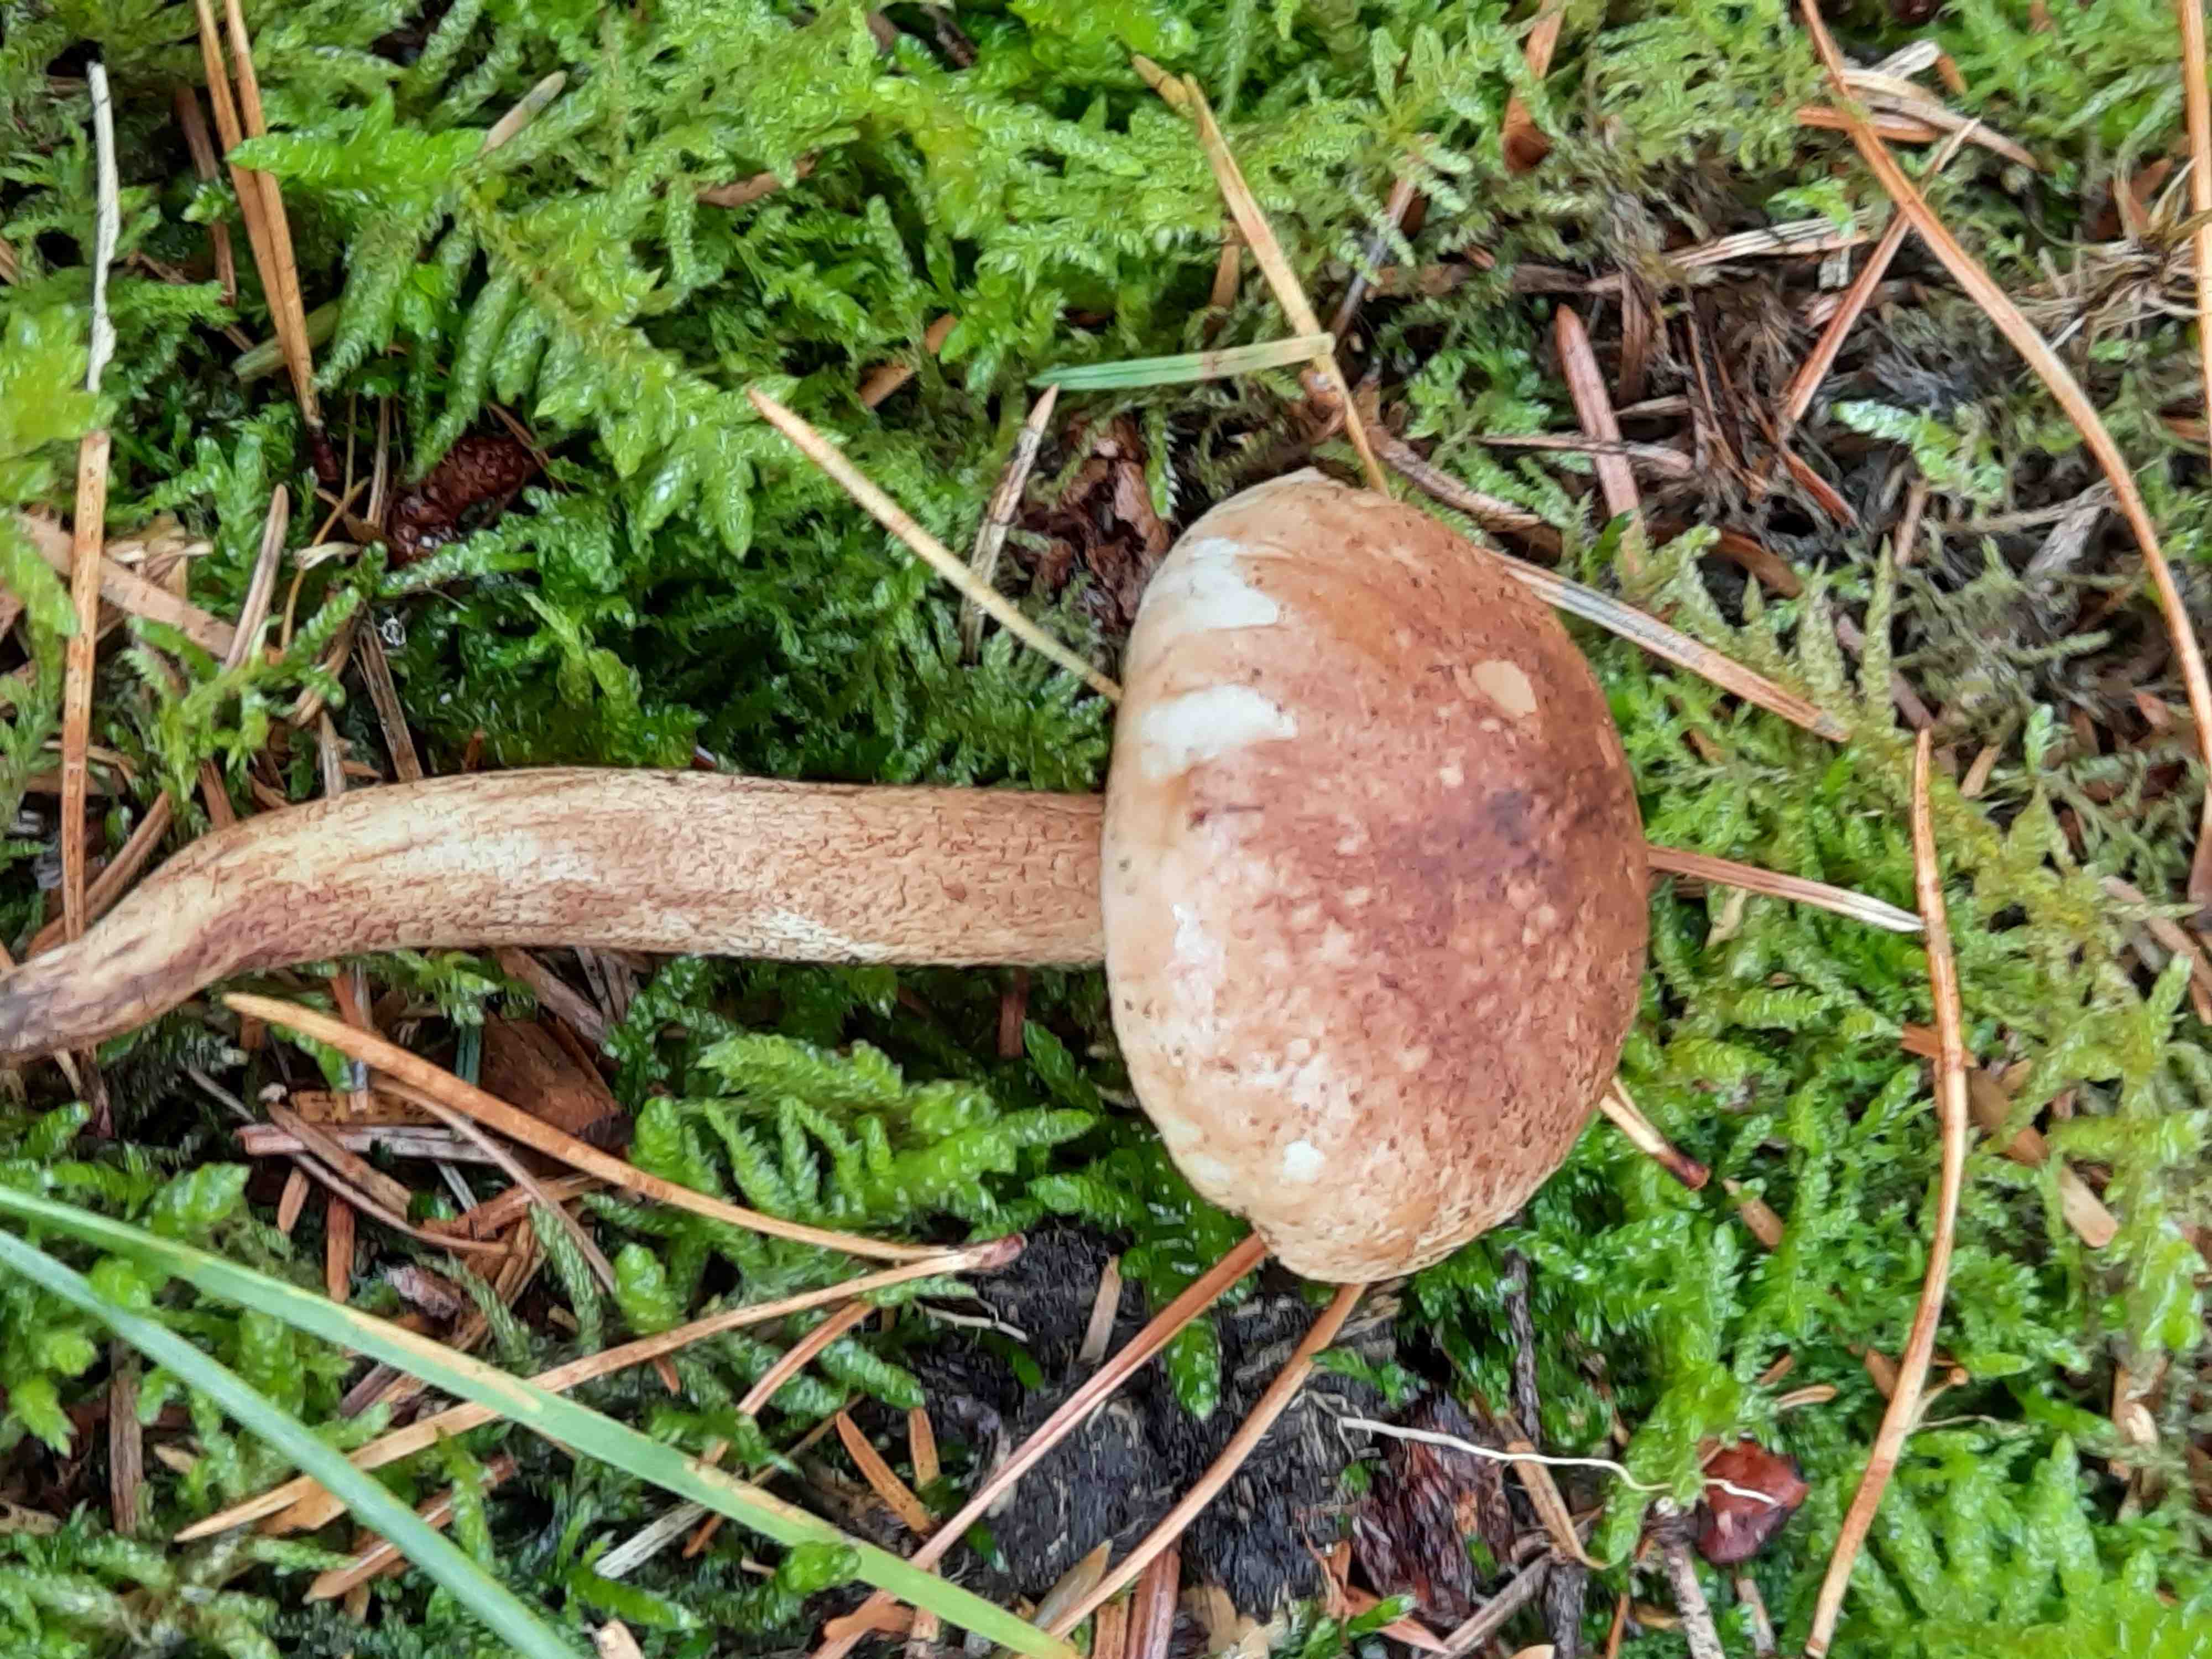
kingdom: Fungi
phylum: Basidiomycota
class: Agaricomycetes
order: Agaricales
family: Tricholomataceae
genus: Tricholoma
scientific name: Tricholoma fulvum
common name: birke-ridderhat
